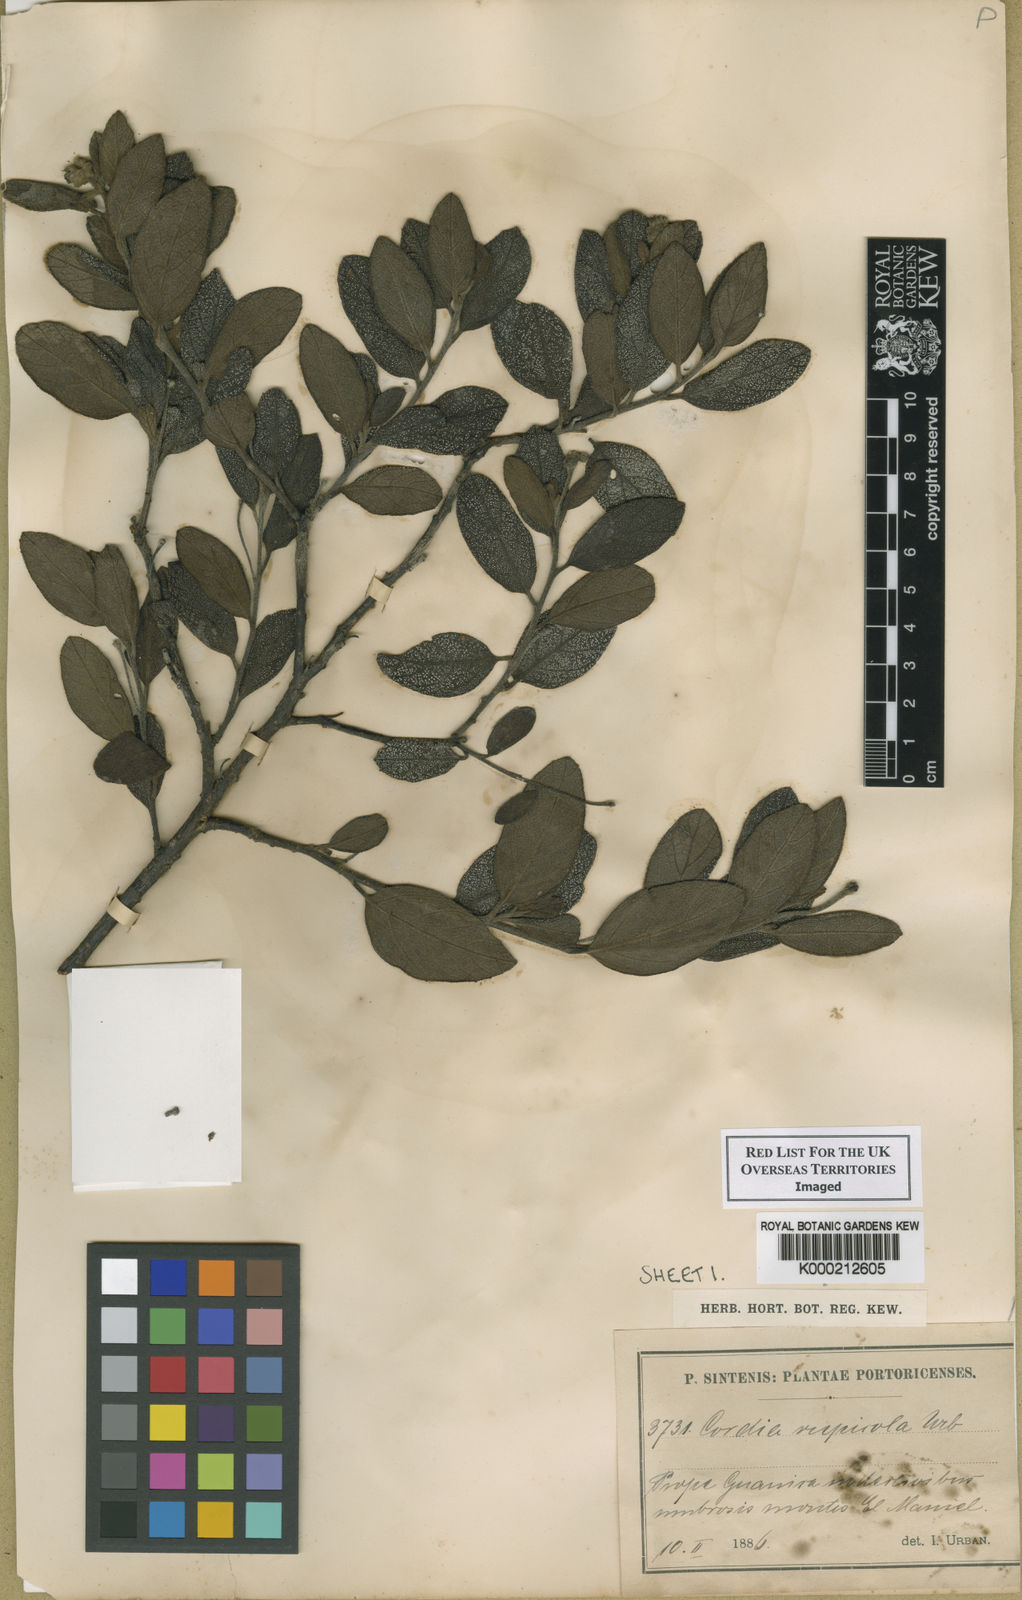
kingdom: Plantae
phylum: Tracheophyta
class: Magnoliopsida
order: Boraginales
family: Cordiaceae
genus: Varronia
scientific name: Varronia rupicola
